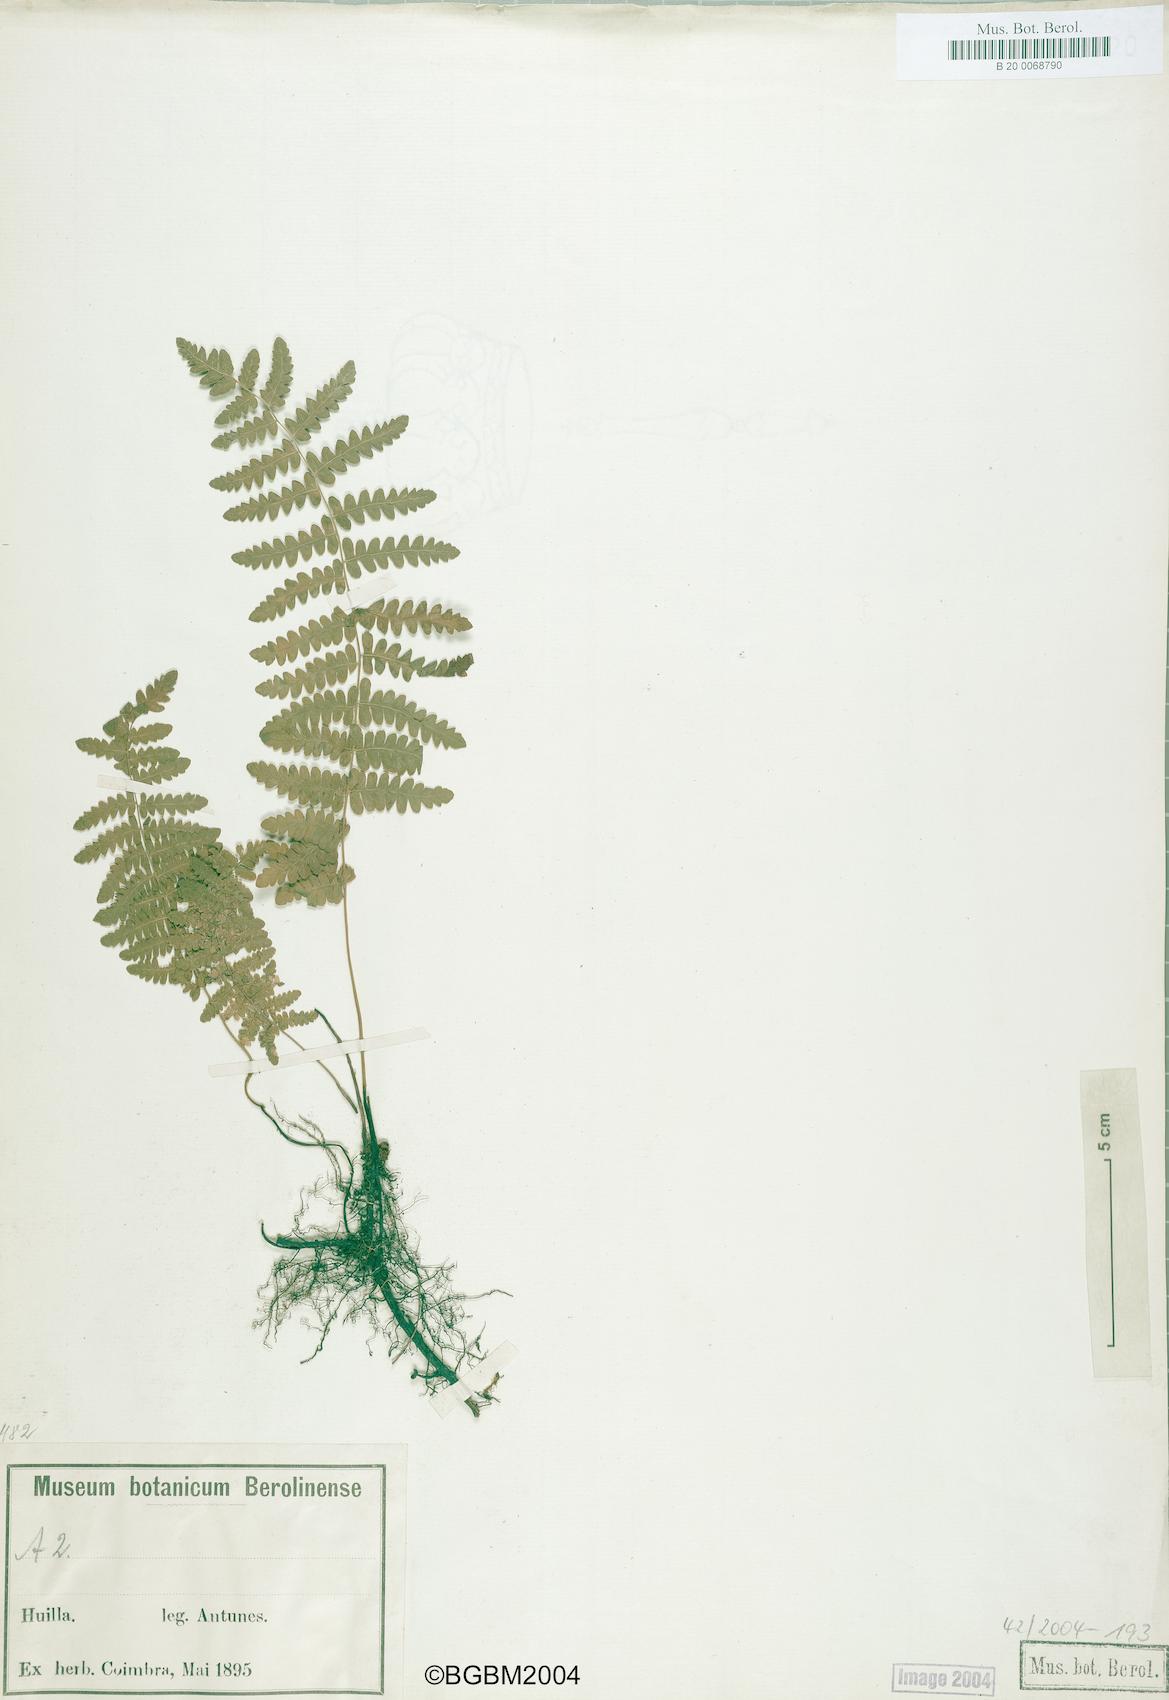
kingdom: Plantae
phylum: Tracheophyta
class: Polypodiopsida
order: Polypodiales
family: Thelypteridaceae
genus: Thelypteris
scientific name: Thelypteris palustris
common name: Marsh fern
